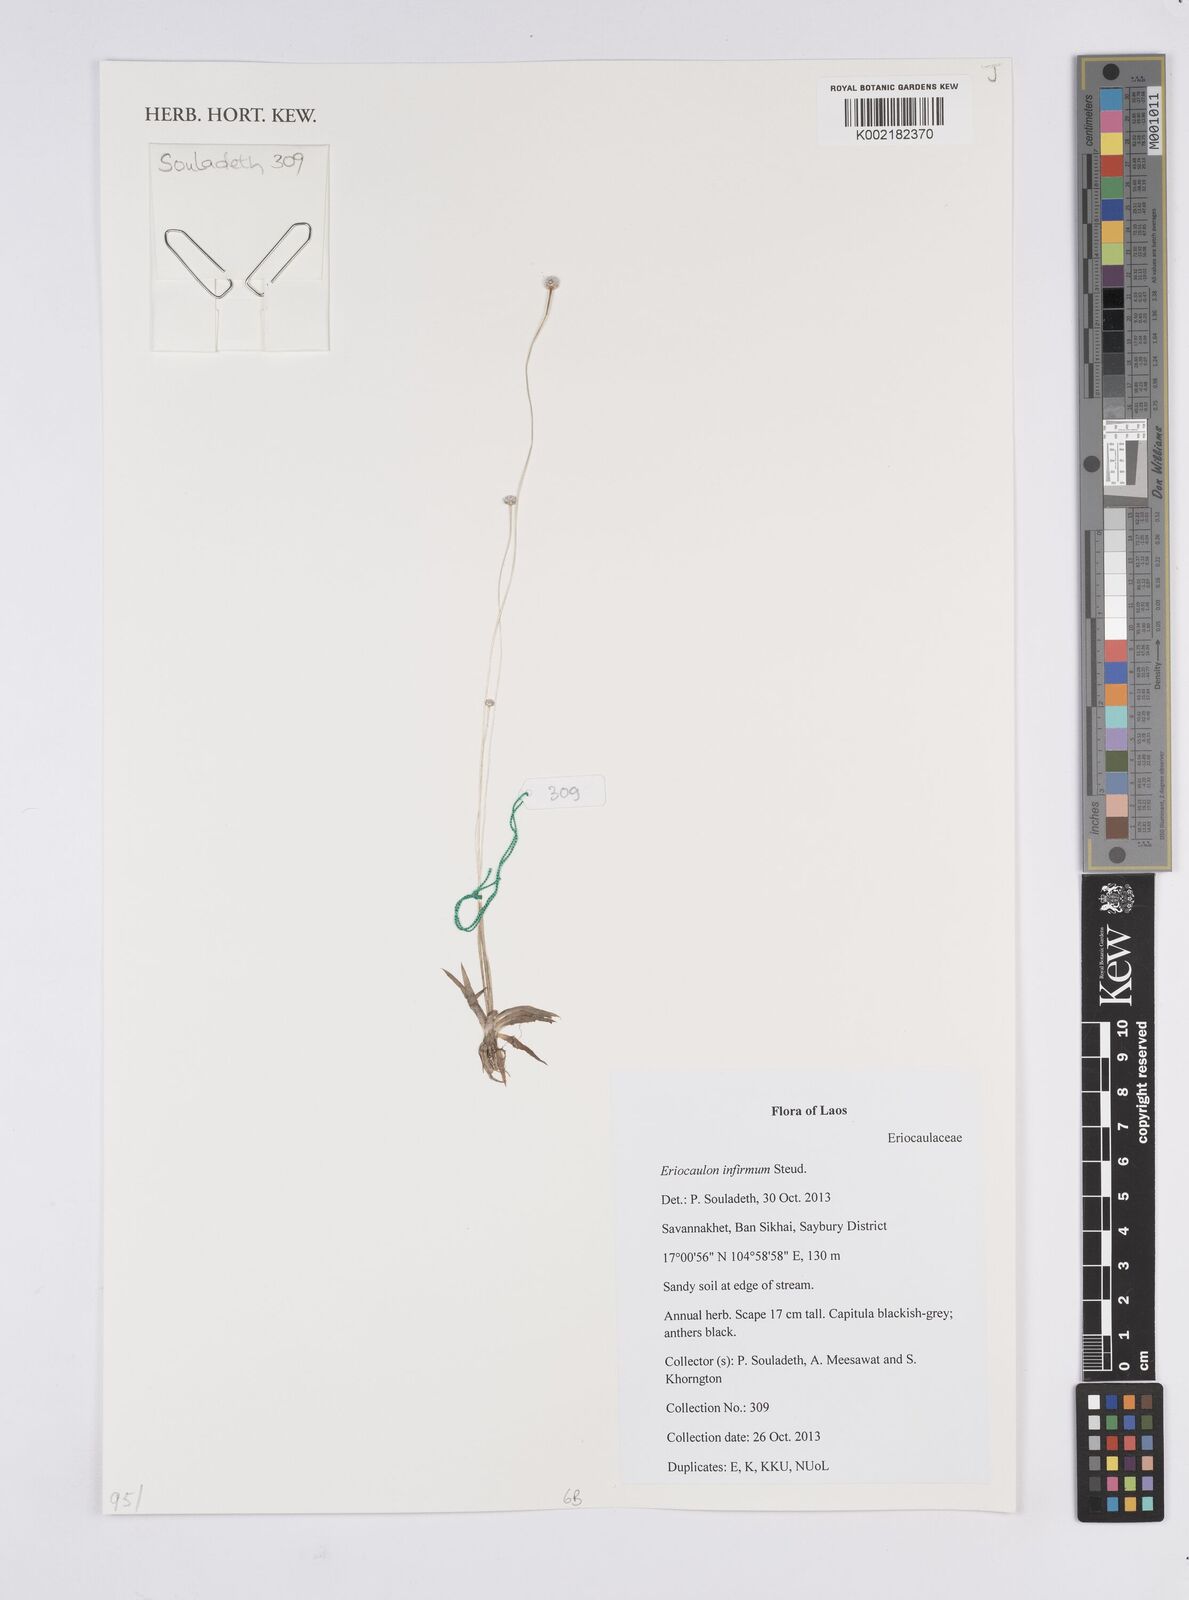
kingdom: Plantae
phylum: Tracheophyta
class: Liliopsida
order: Poales
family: Eriocaulaceae
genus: Eriocaulon
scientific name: Eriocaulon infirmum
